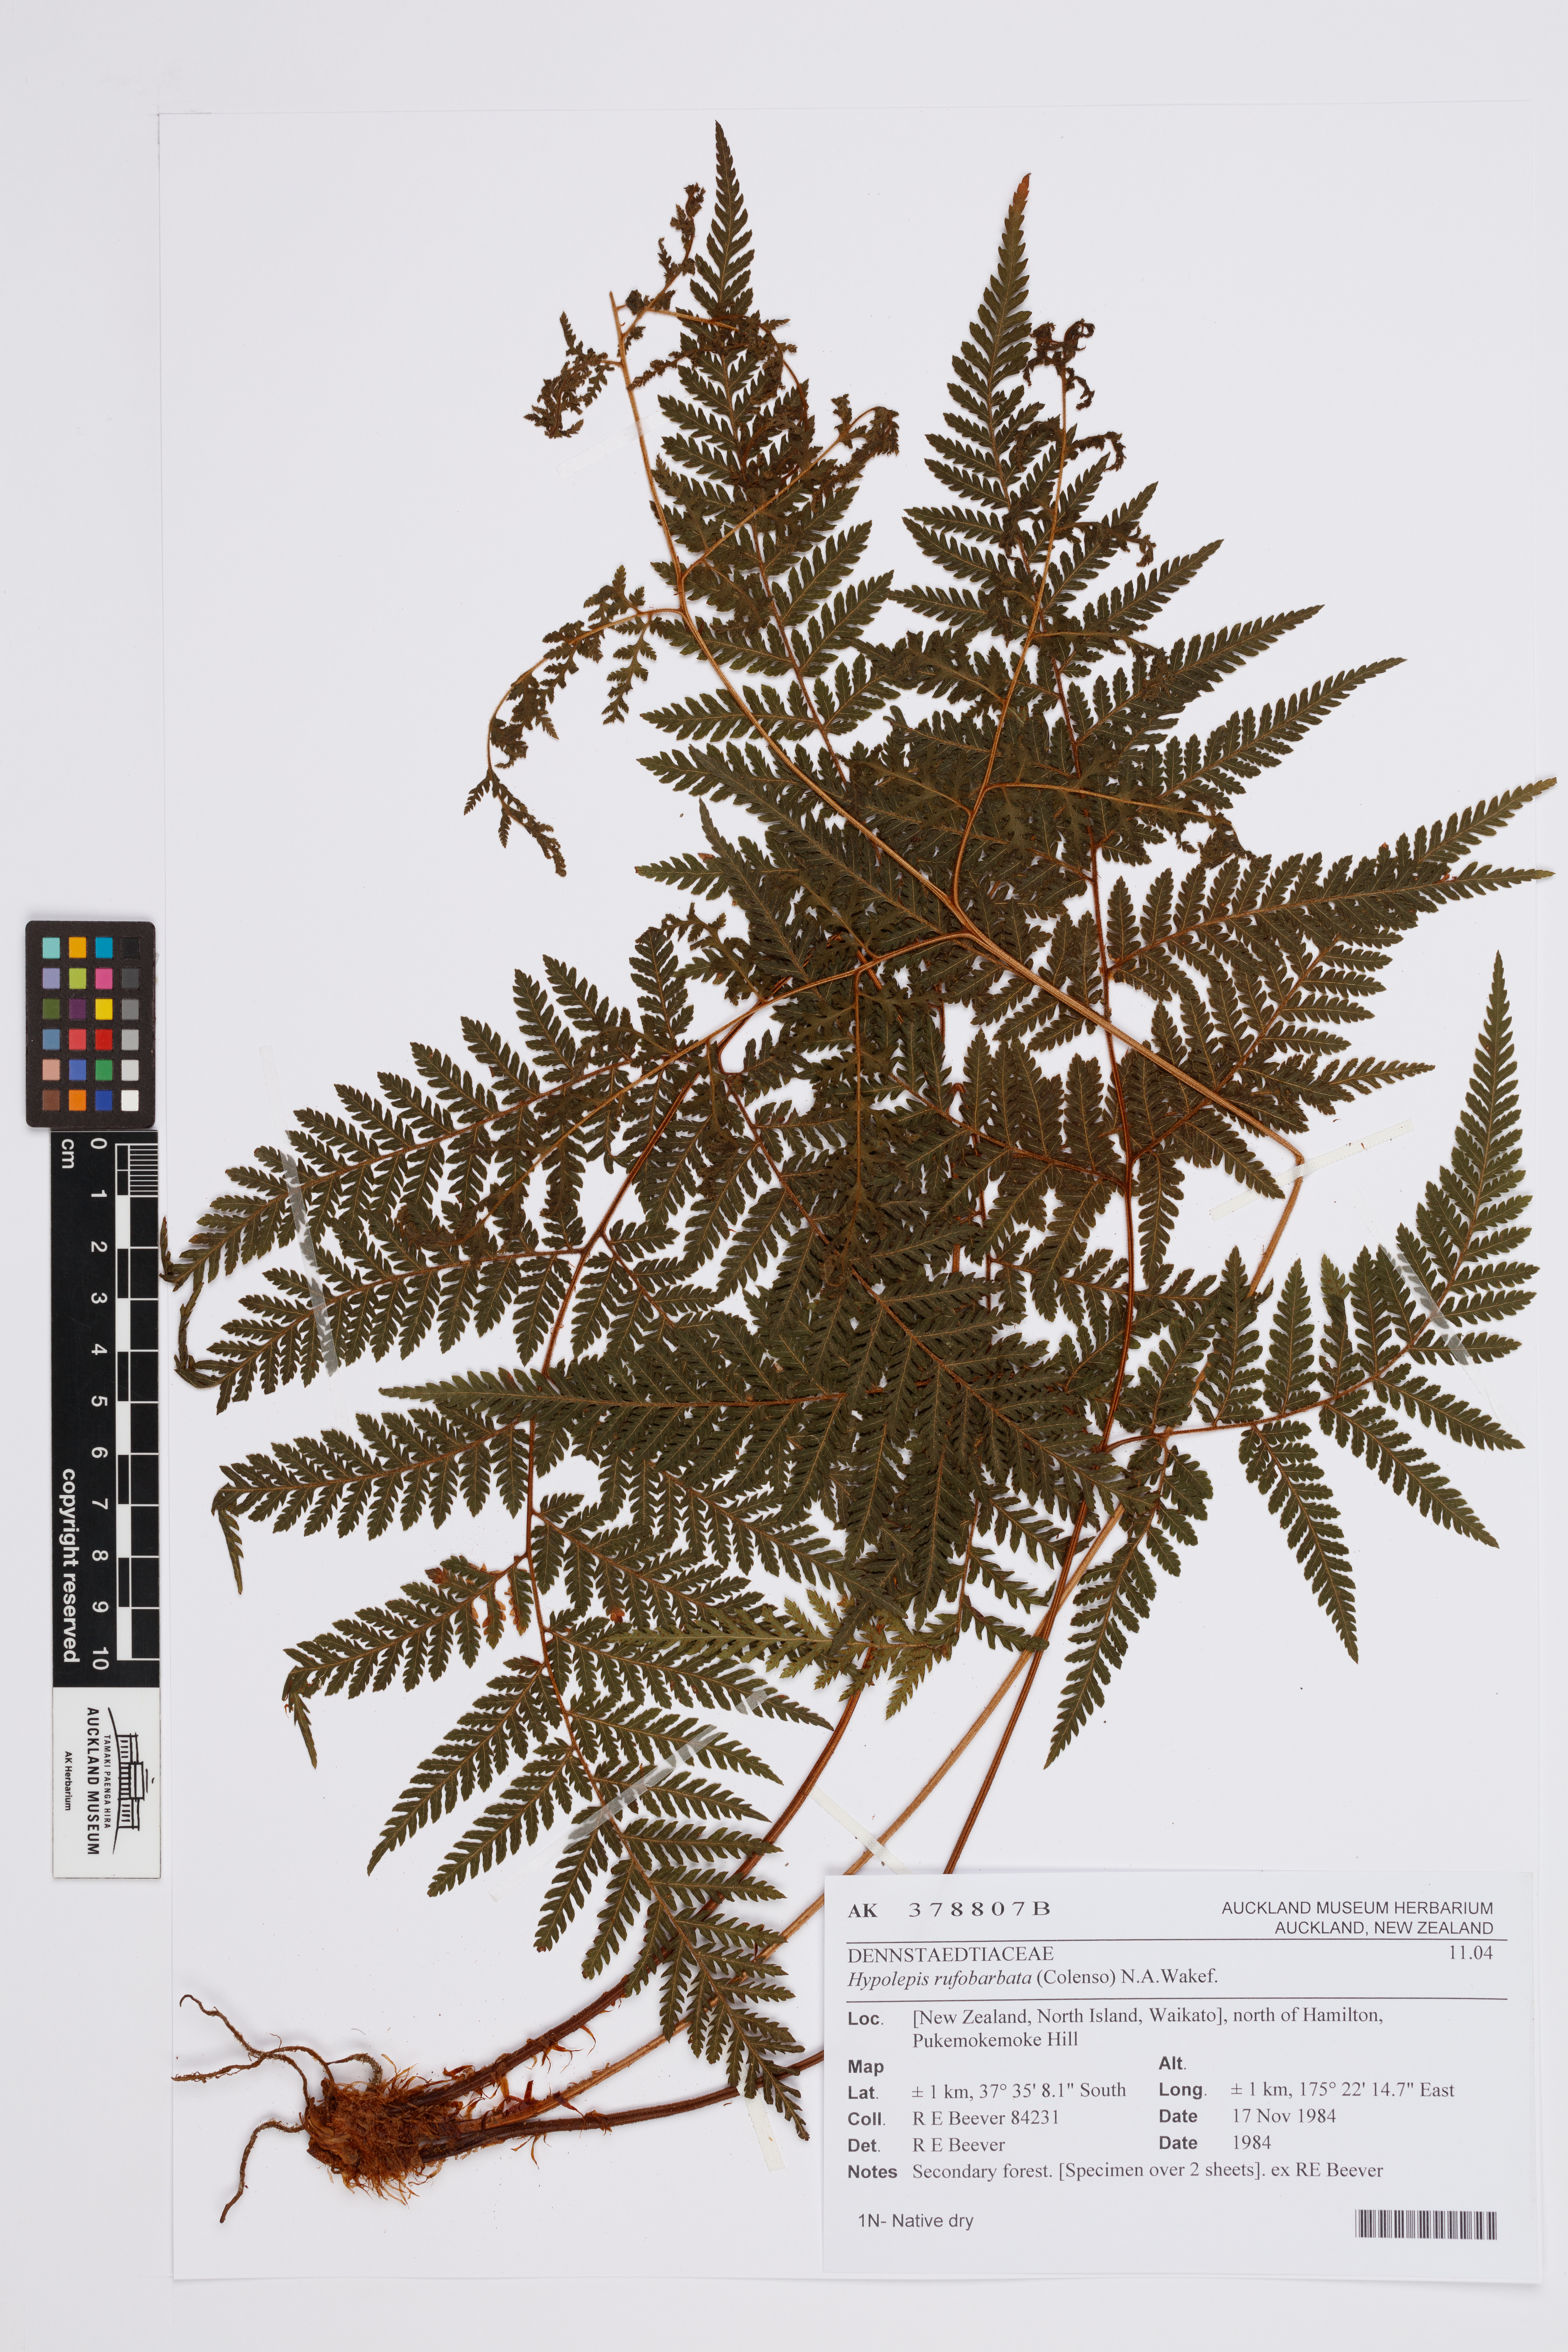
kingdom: Plantae
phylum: Tracheophyta
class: Polypodiopsida
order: Polypodiales
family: Dennstaedtiaceae
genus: Hypolepis
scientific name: Hypolepis rugosula
